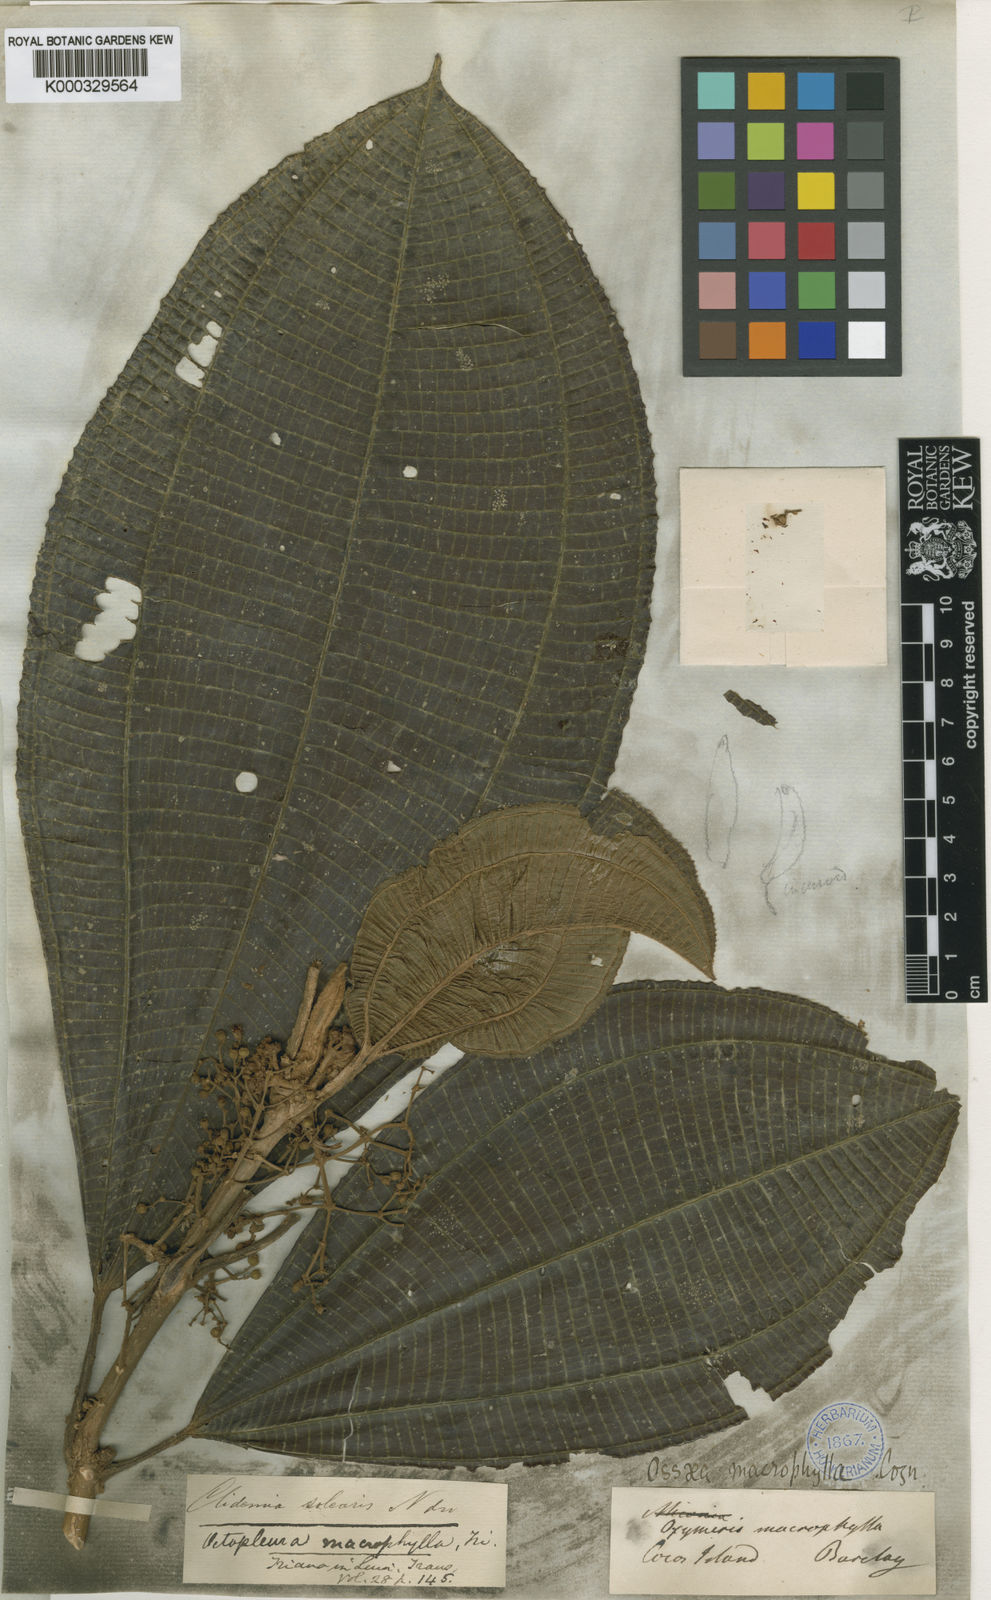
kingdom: Plantae
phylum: Tracheophyta
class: Magnoliopsida
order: Myrtales
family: Melastomataceae
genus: Miconia
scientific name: Miconia magnifolia
